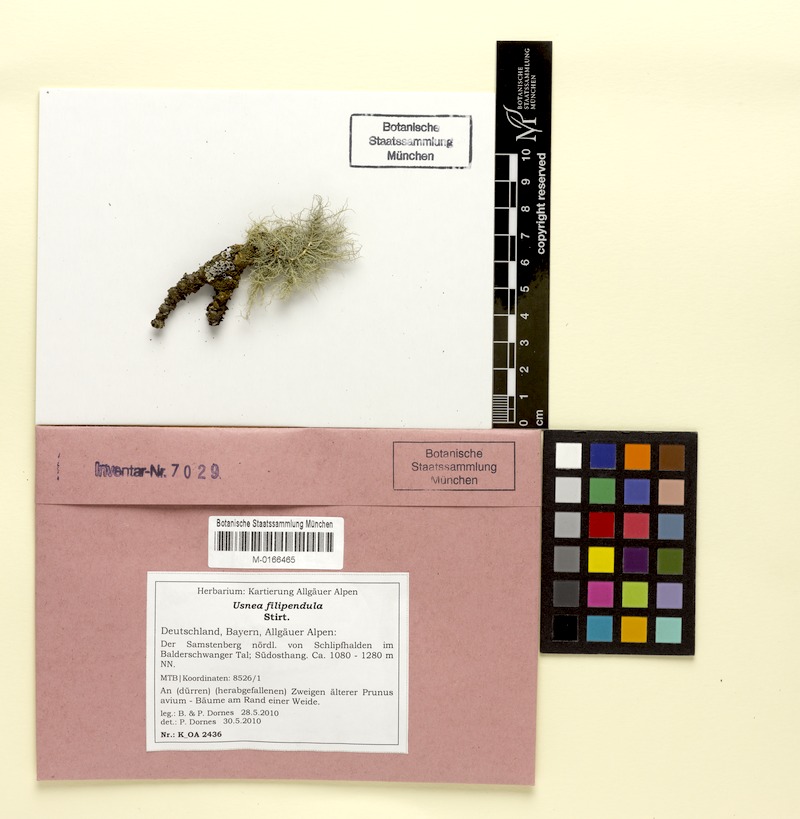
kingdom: Fungi
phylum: Ascomycota
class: Lecanoromycetes
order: Lecanorales
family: Parmeliaceae
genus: Usnea
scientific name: Usnea filipendula
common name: Fishbone beard lichen
